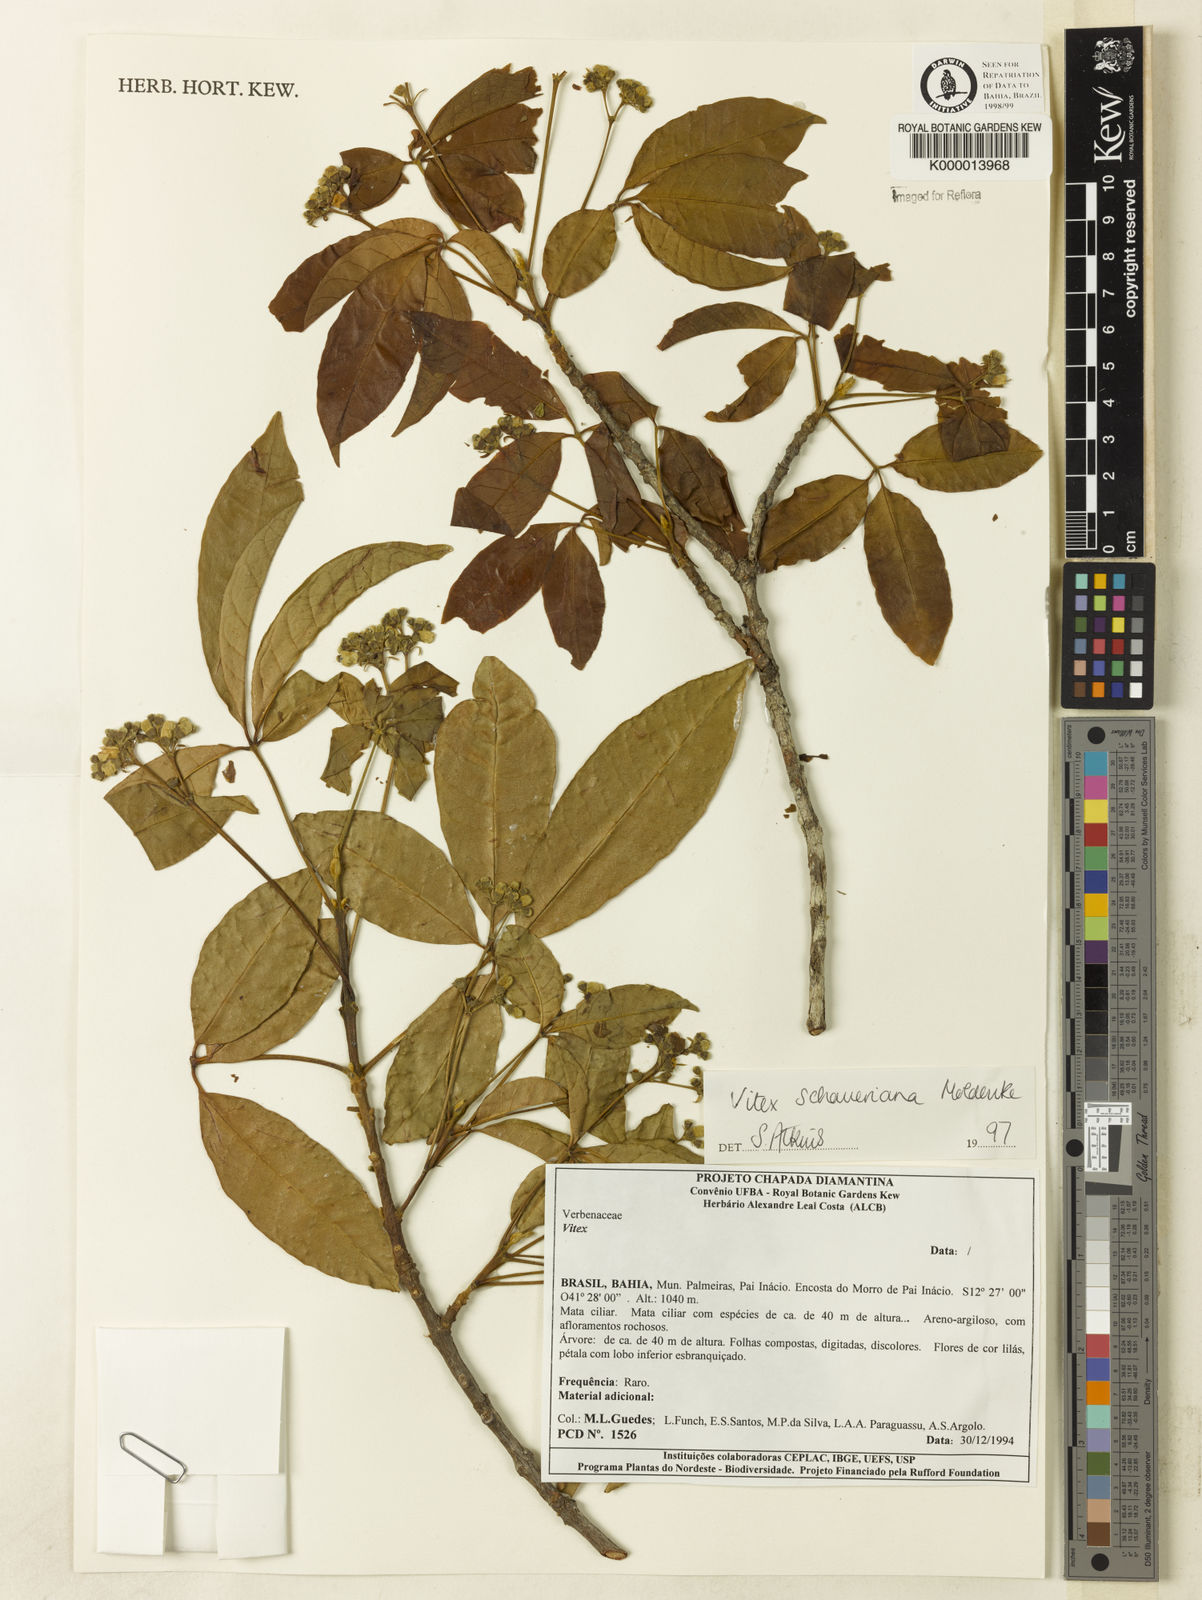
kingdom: Plantae
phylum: Tracheophyta
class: Magnoliopsida
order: Lamiales
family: Lamiaceae
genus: Vitex
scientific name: Vitex schaueriana
